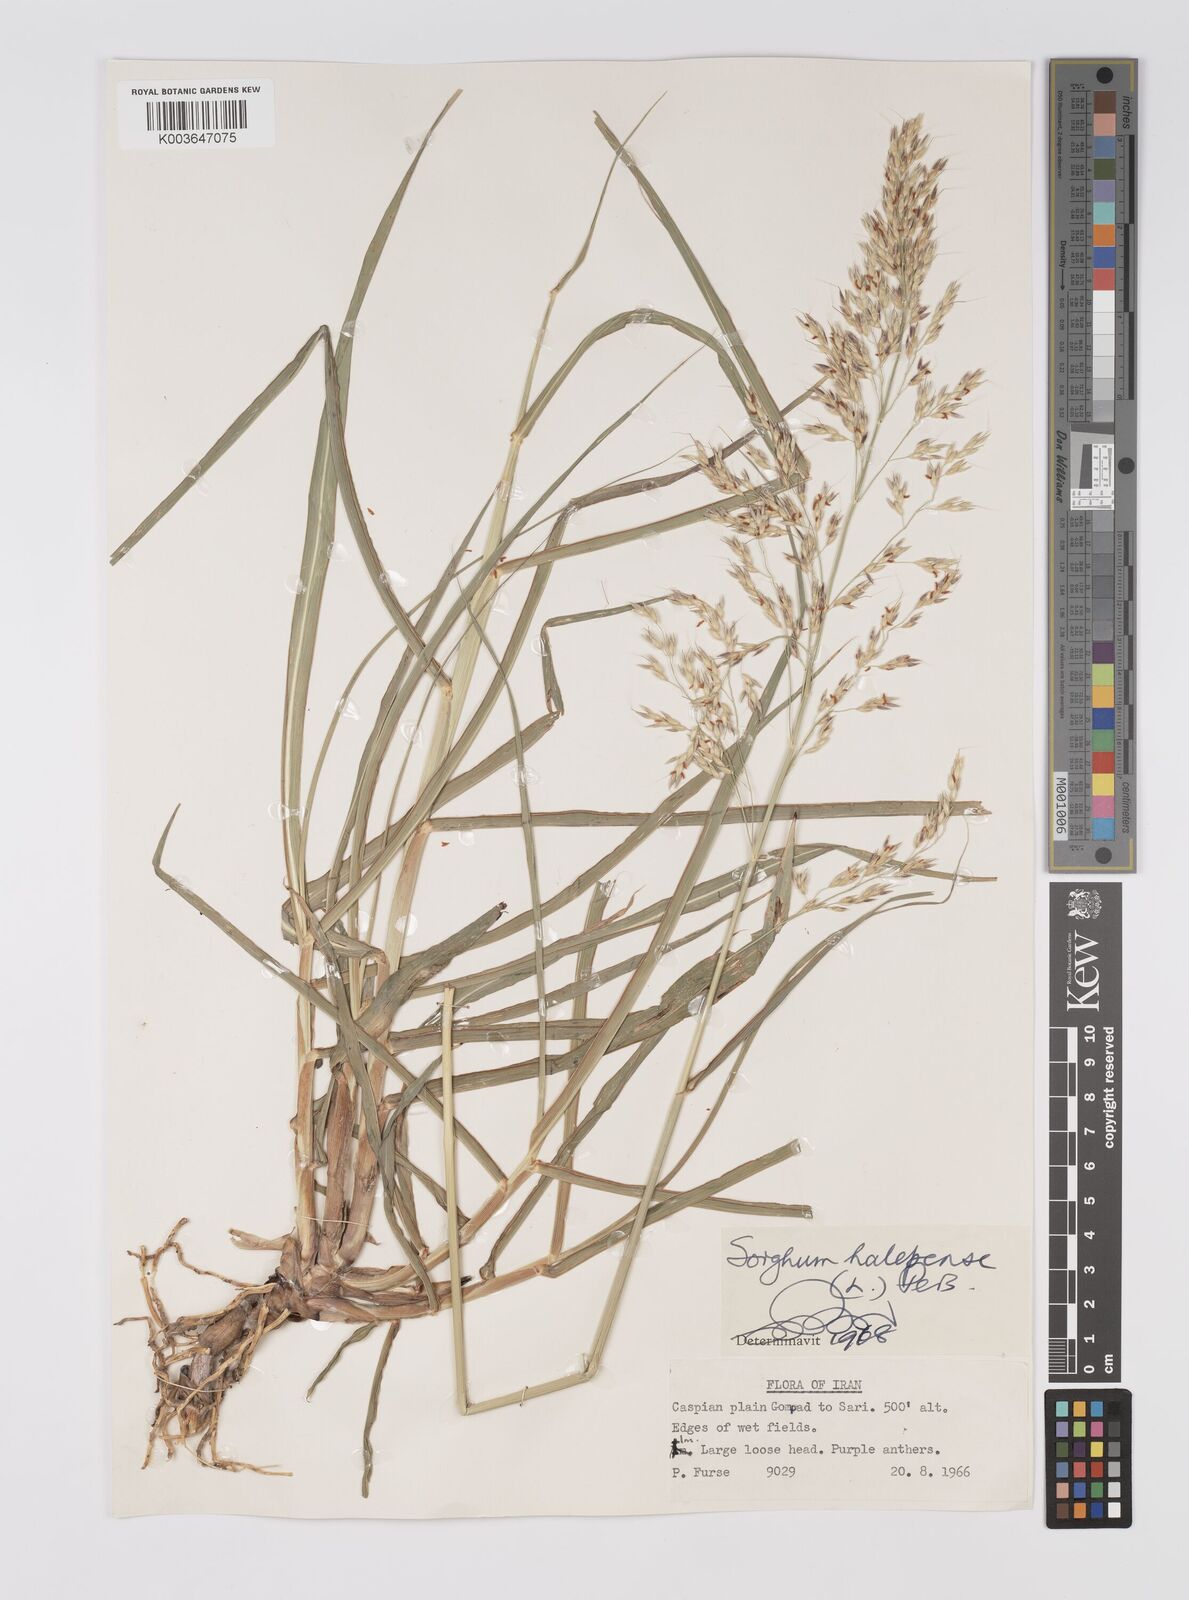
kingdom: Plantae
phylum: Tracheophyta
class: Liliopsida
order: Poales
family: Poaceae
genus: Sorghum
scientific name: Sorghum halepense
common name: Johnson-grass
